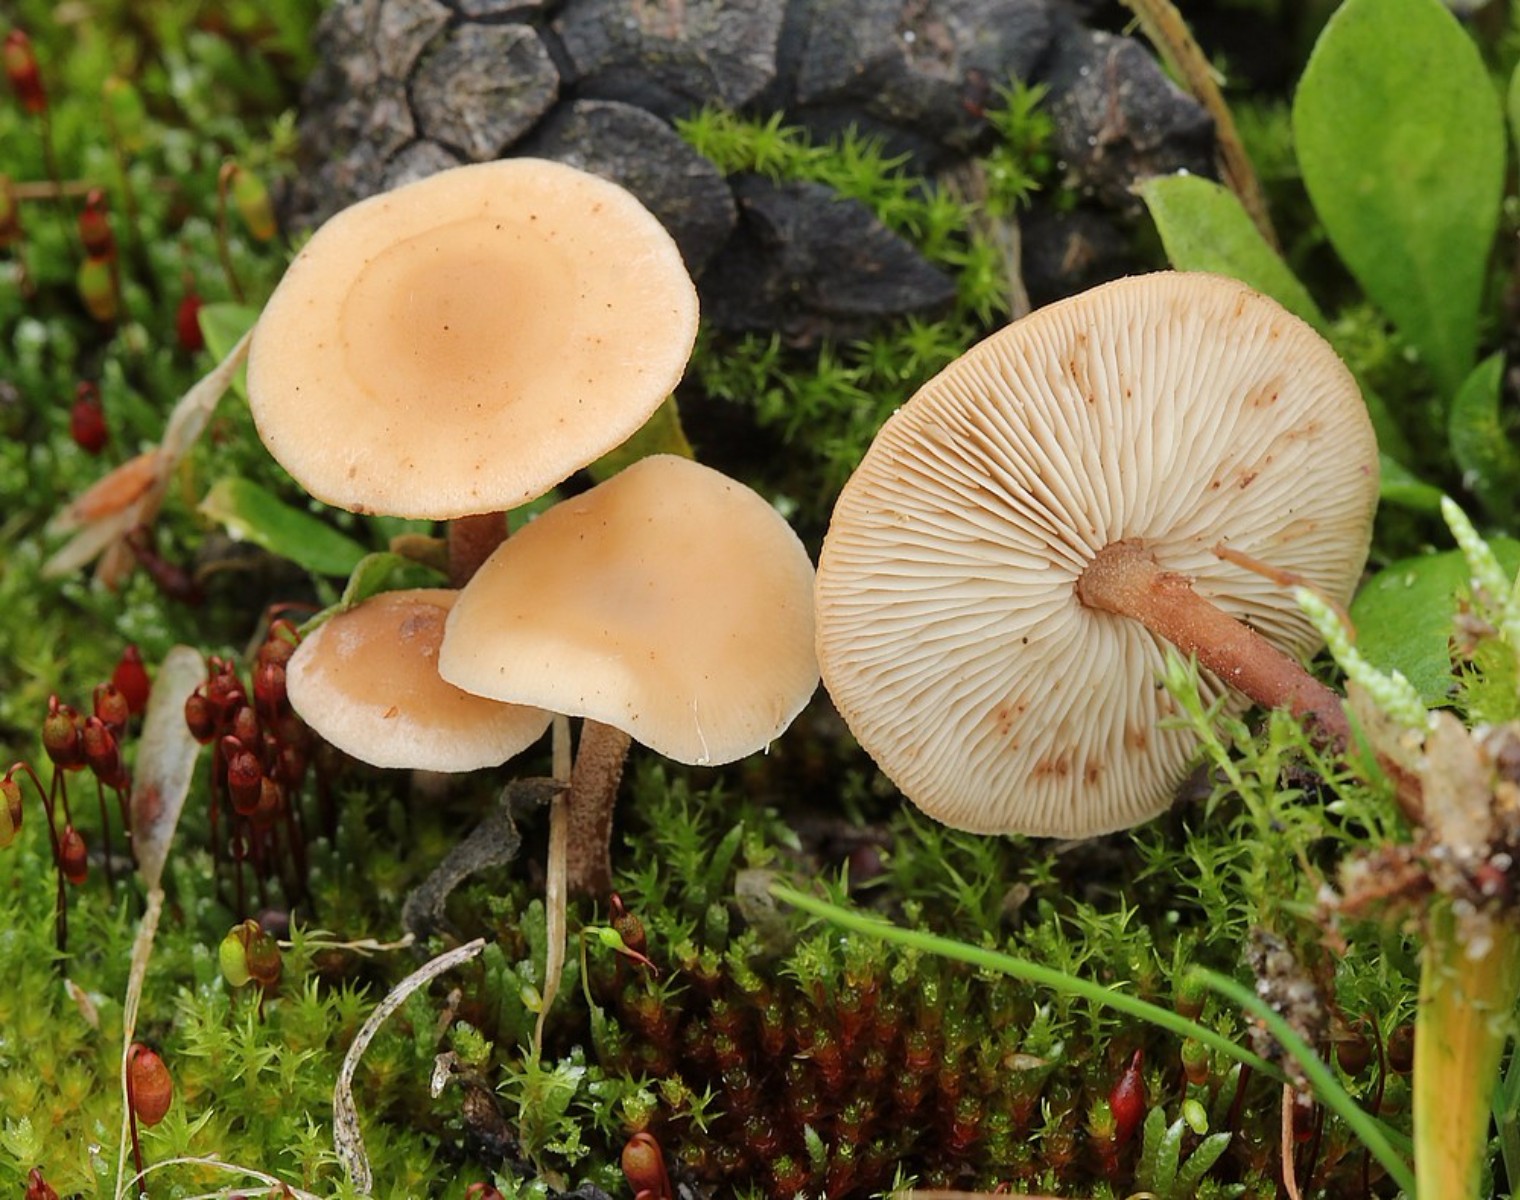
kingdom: Fungi
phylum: Basidiomycota
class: Agaricomycetes
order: Agaricales
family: Omphalotaceae
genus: Gymnopus
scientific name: Gymnopus
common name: fladhat
